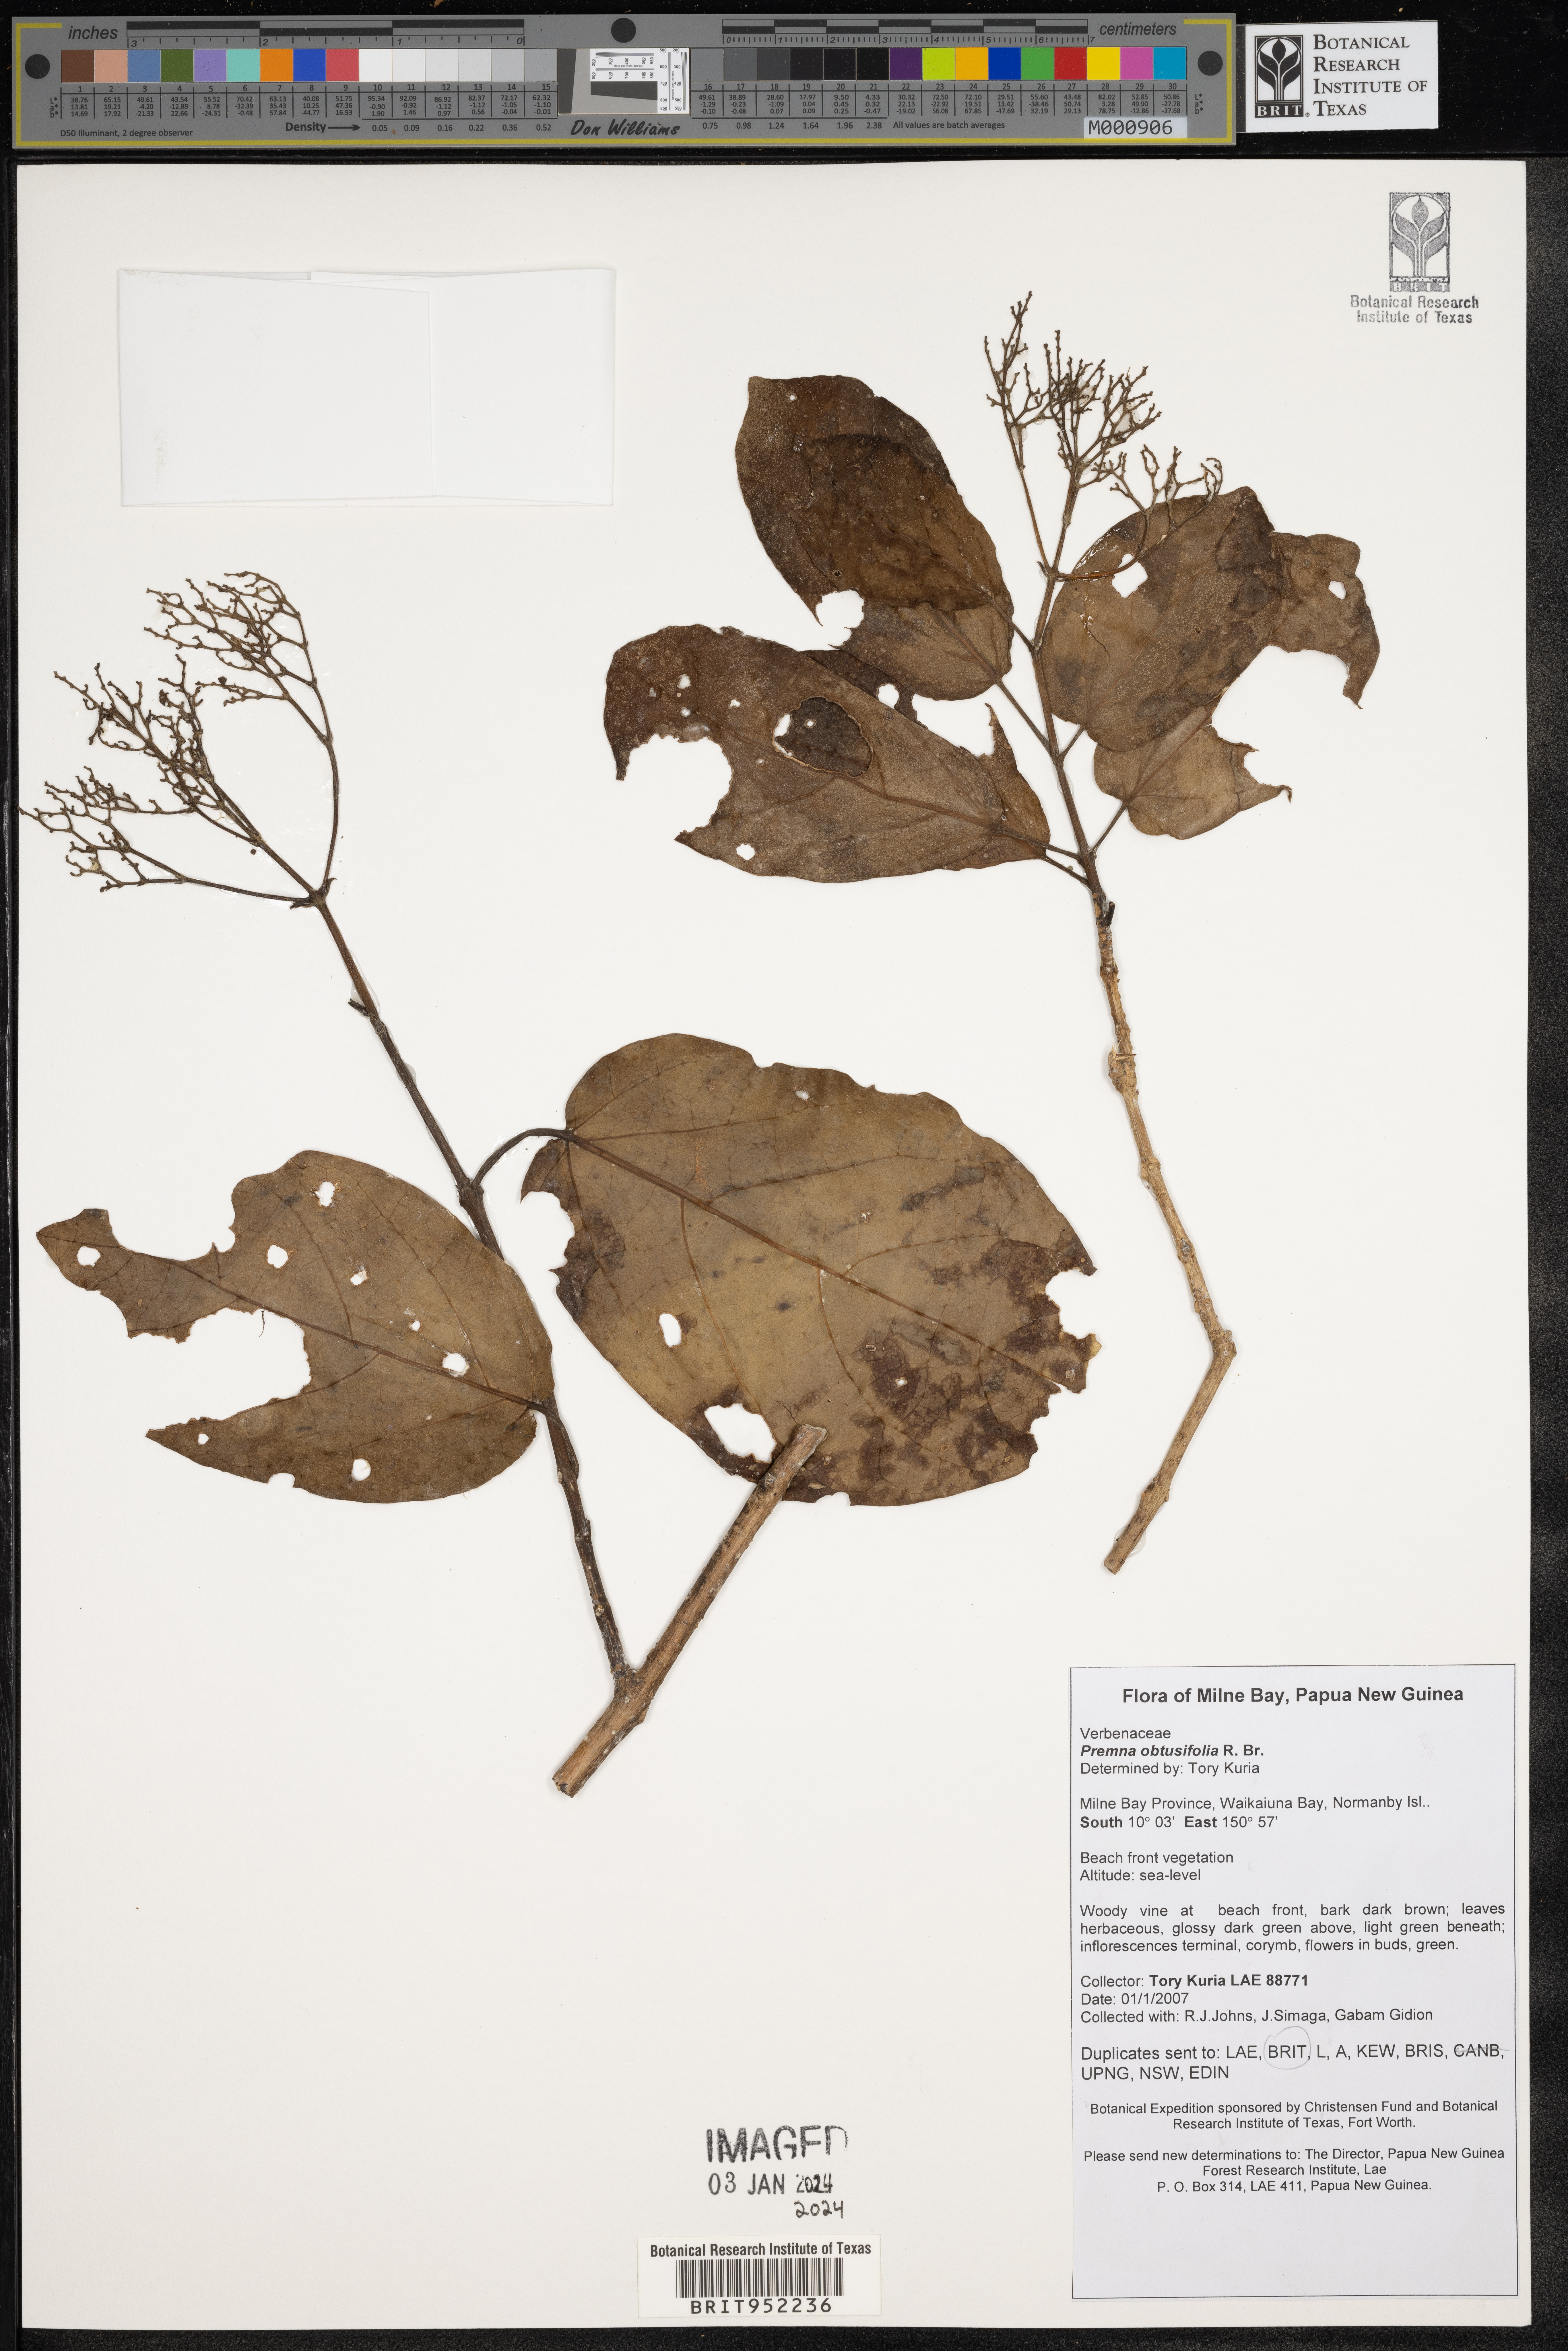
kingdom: Plantae
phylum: Tracheophyta
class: Magnoliopsida
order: Lamiales
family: Lamiaceae
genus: Premna
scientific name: Premna
